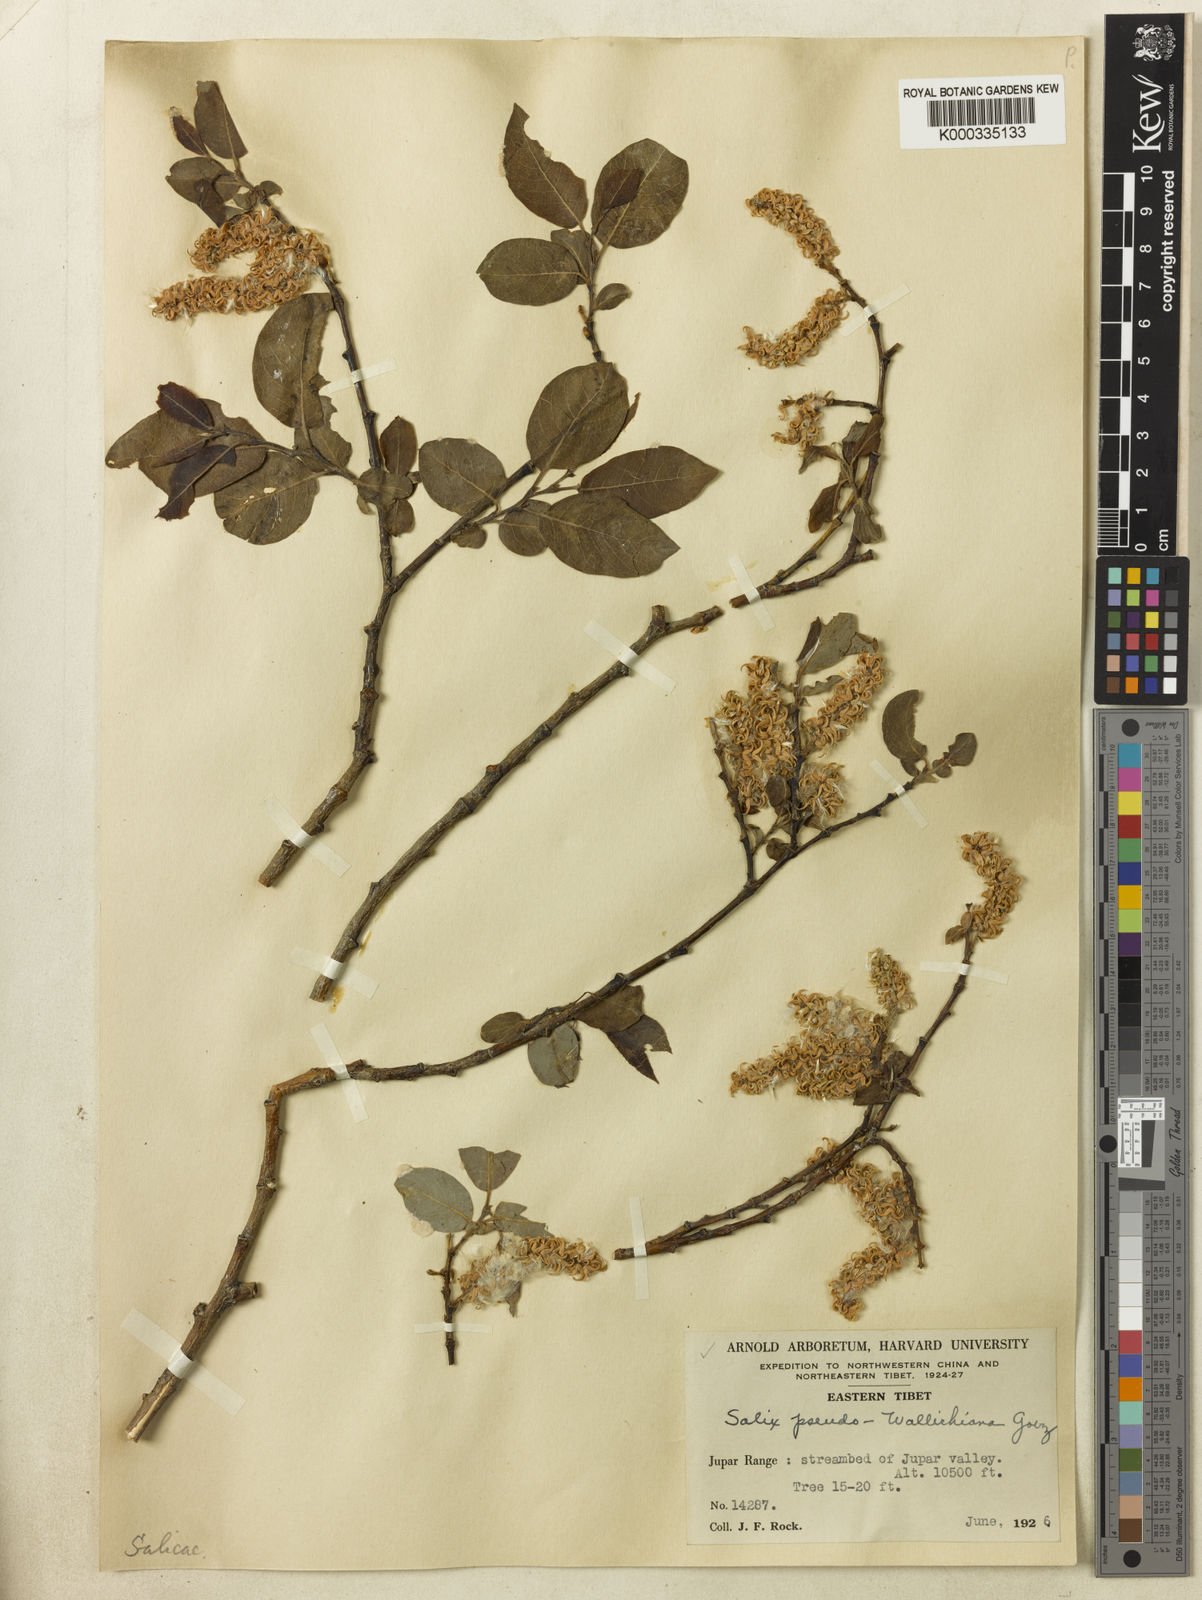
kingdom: Plantae
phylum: Tracheophyta
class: Magnoliopsida
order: Malpighiales
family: Salicaceae
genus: Salix
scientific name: Salix
